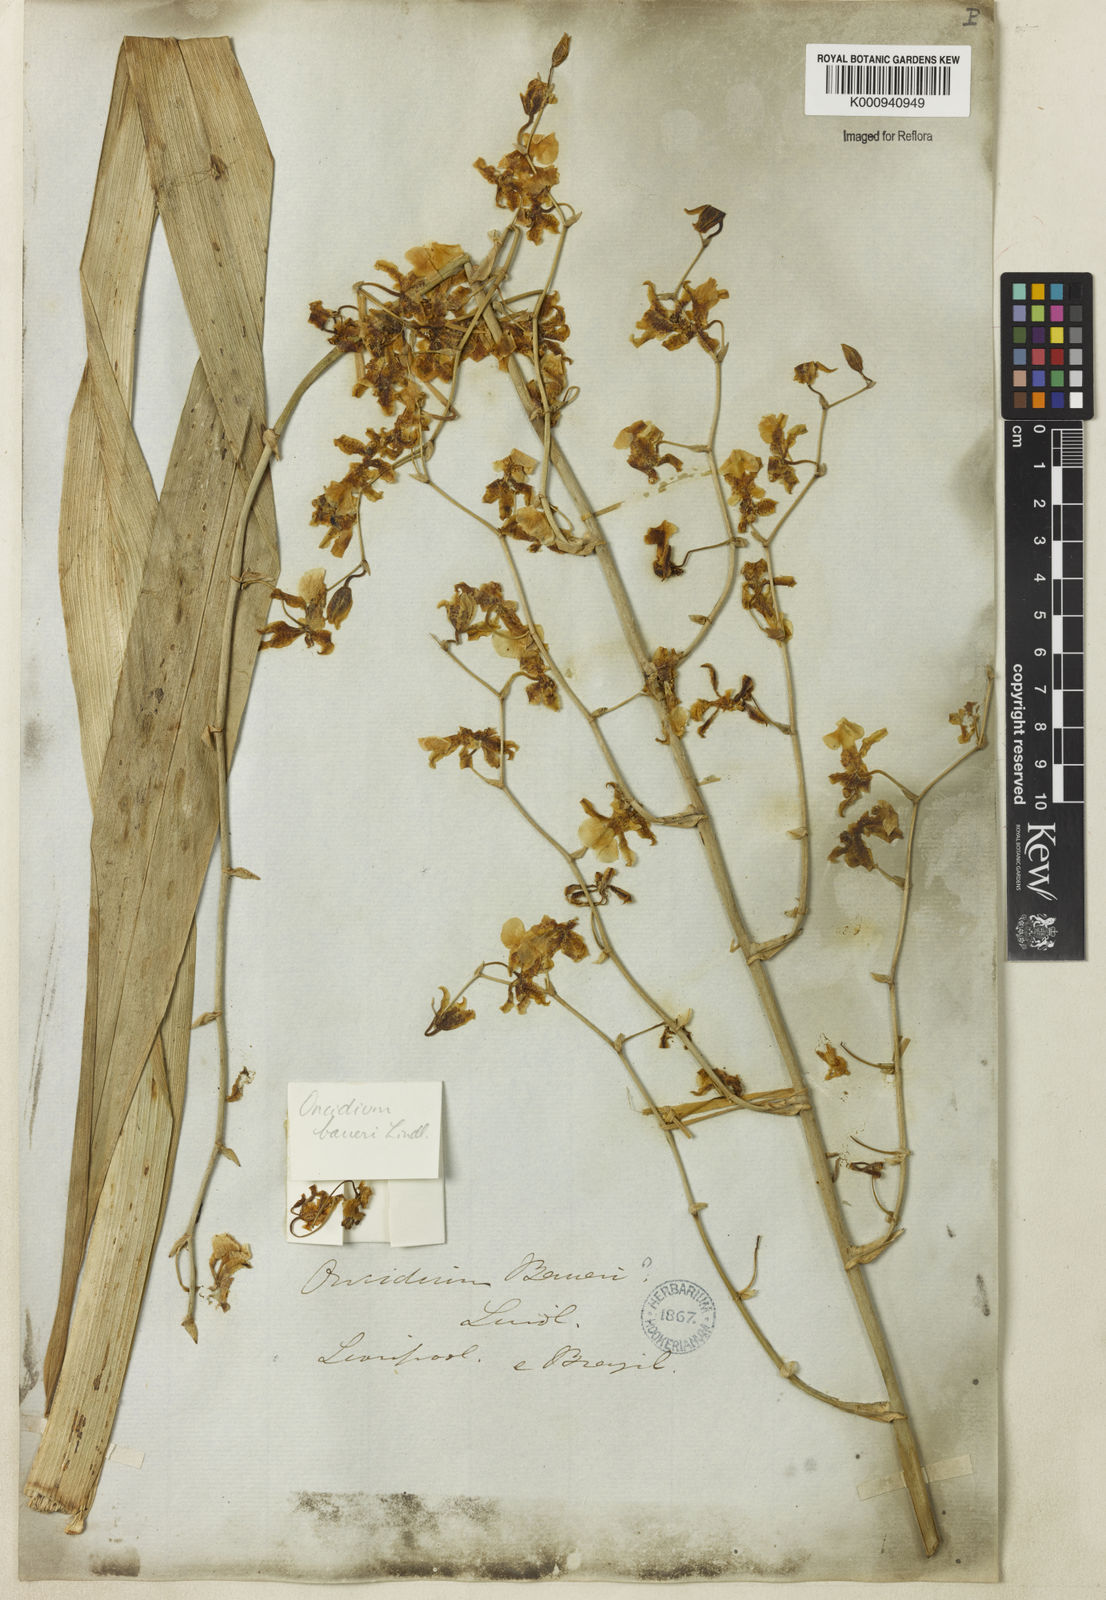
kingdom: Plantae
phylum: Tracheophyta
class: Liliopsida
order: Asparagales
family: Orchidaceae
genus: Oncidium
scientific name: Oncidium baueri
